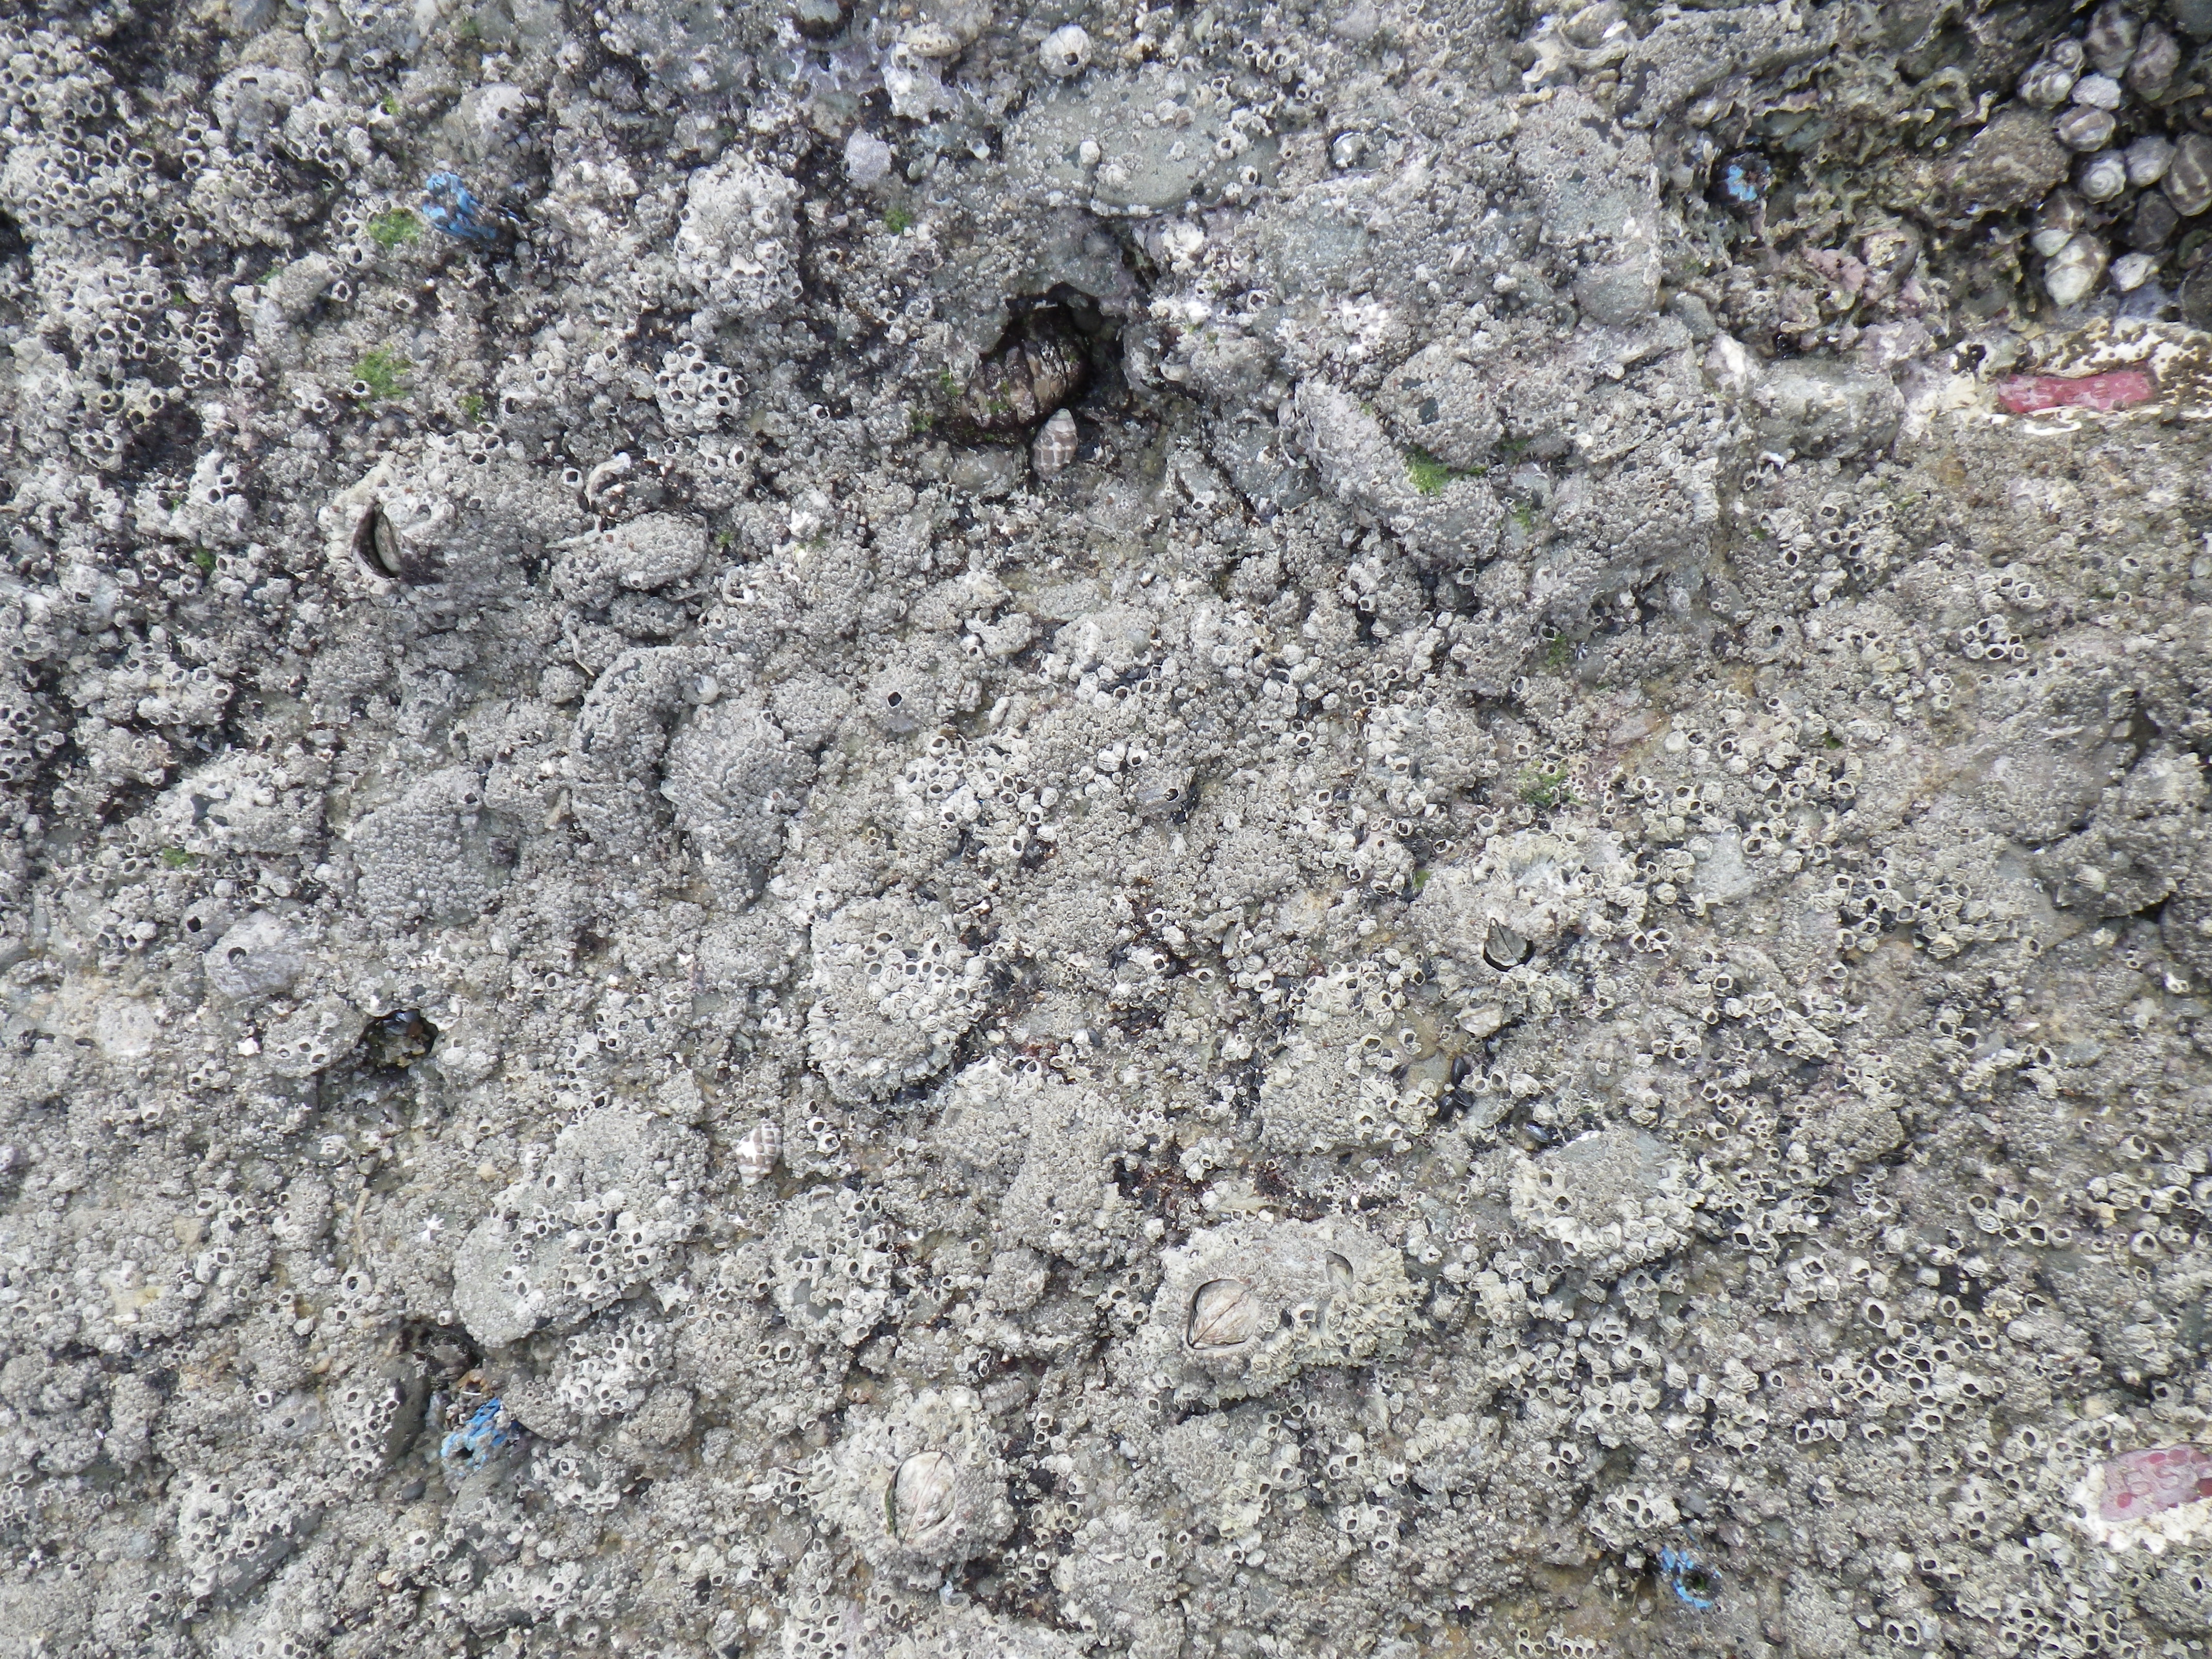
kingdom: Animalia
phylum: Arthropoda
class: Maxillopoda
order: Sessilia
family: Chthamalidae
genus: Chthamalus
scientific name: Chthamalus challengeri
